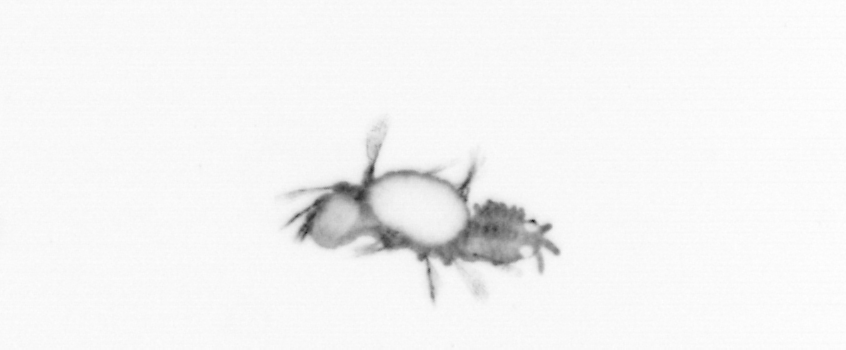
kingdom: Animalia
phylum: Annelida
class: Polychaeta
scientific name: Polychaeta
